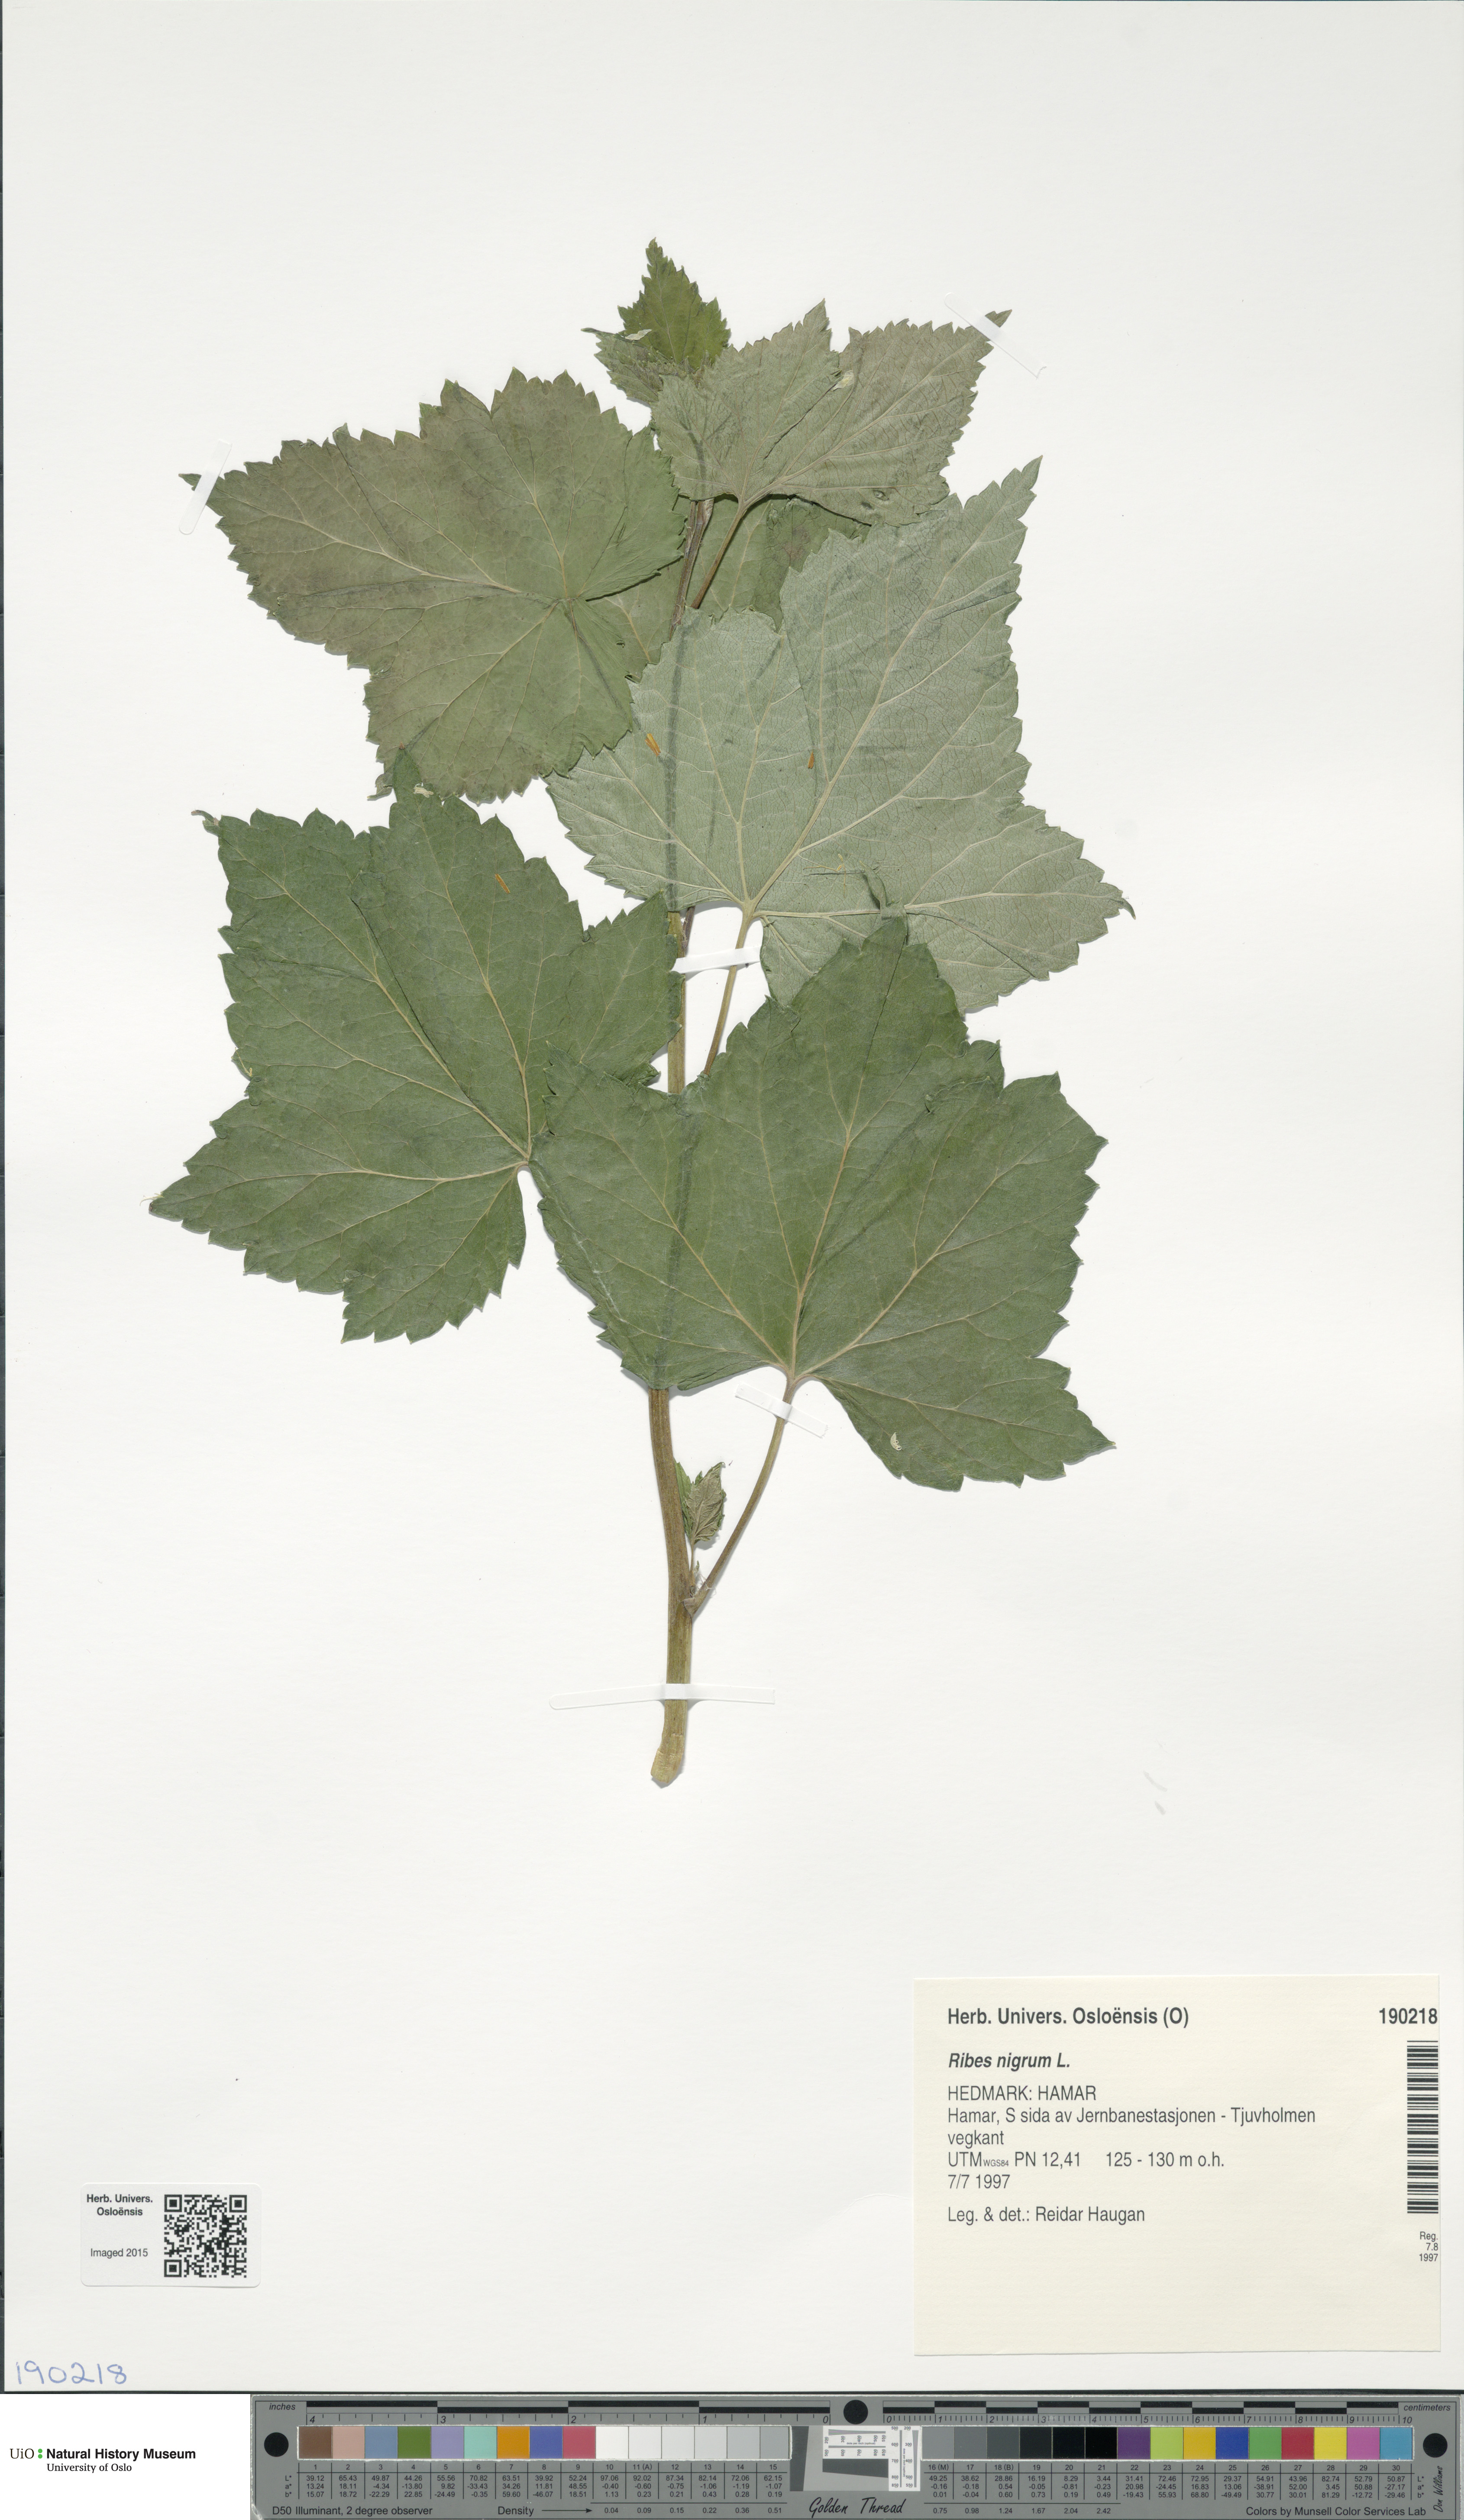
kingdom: Plantae
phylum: Tracheophyta
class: Magnoliopsida
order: Saxifragales
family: Grossulariaceae
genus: Ribes
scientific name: Ribes nigrum
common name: Black currant
